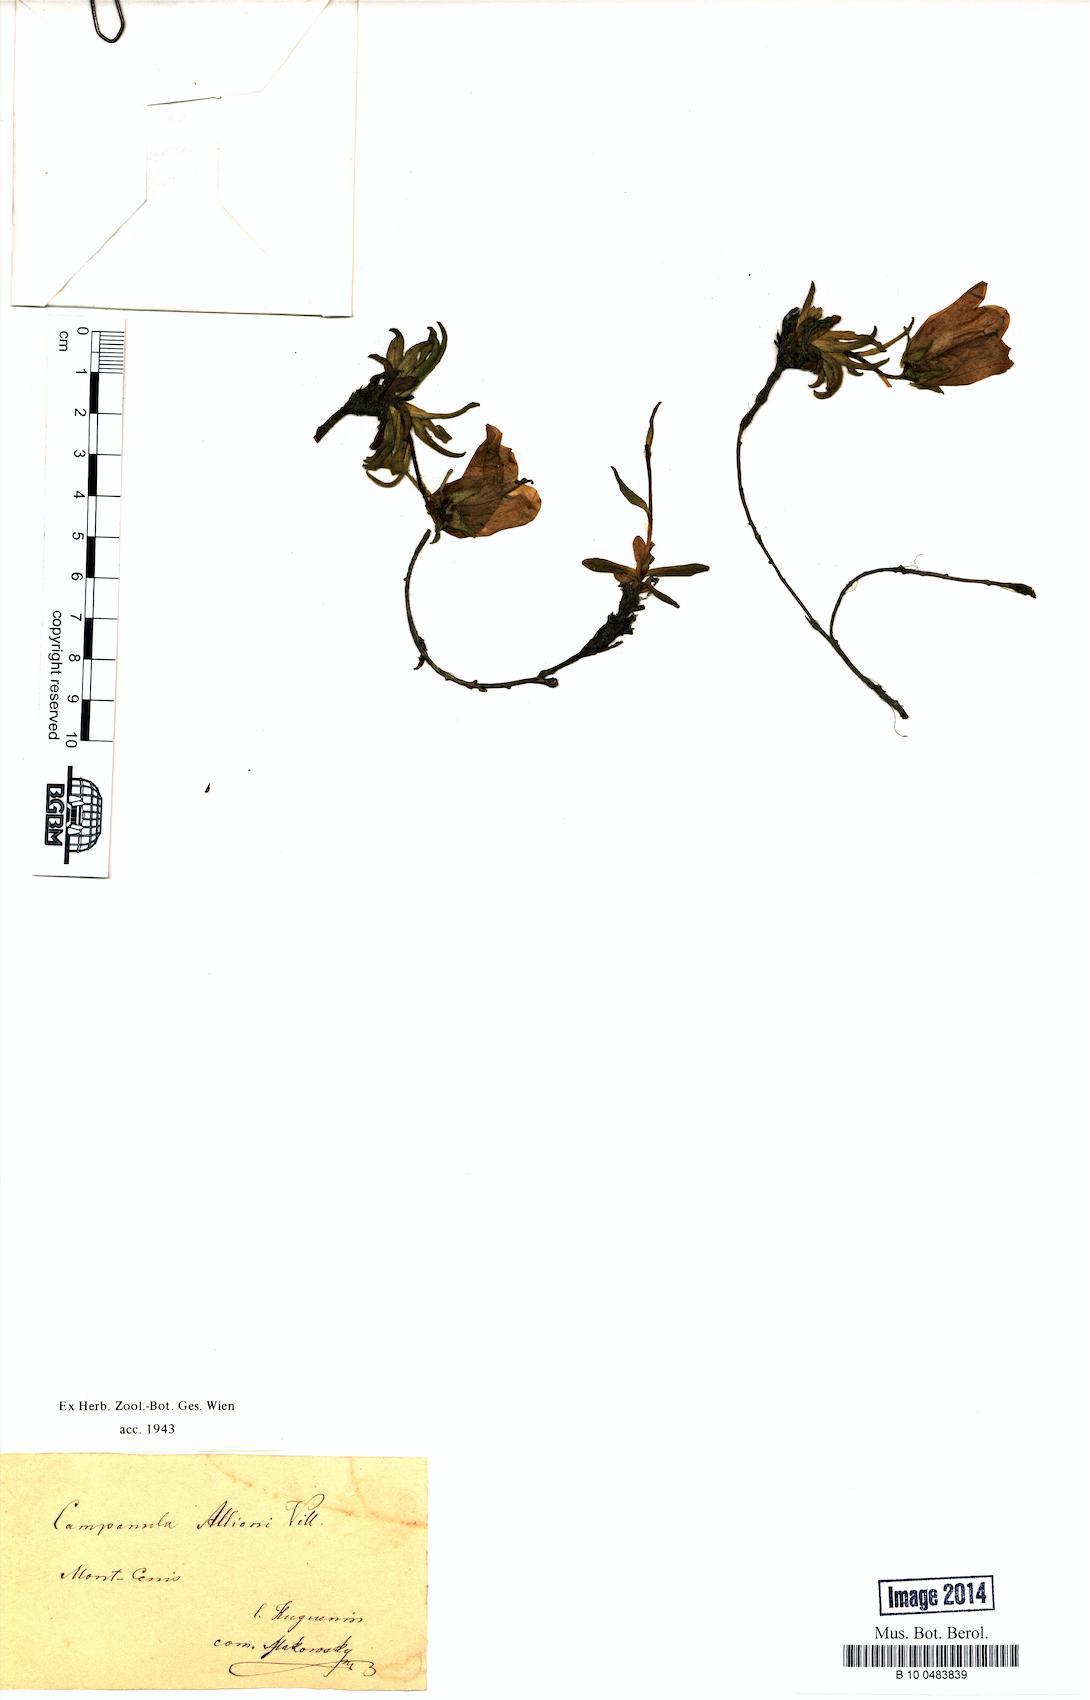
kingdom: Plantae
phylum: Tracheophyta
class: Magnoliopsida
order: Asterales
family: Campanulaceae
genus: Campanula
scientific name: Campanula alpina
